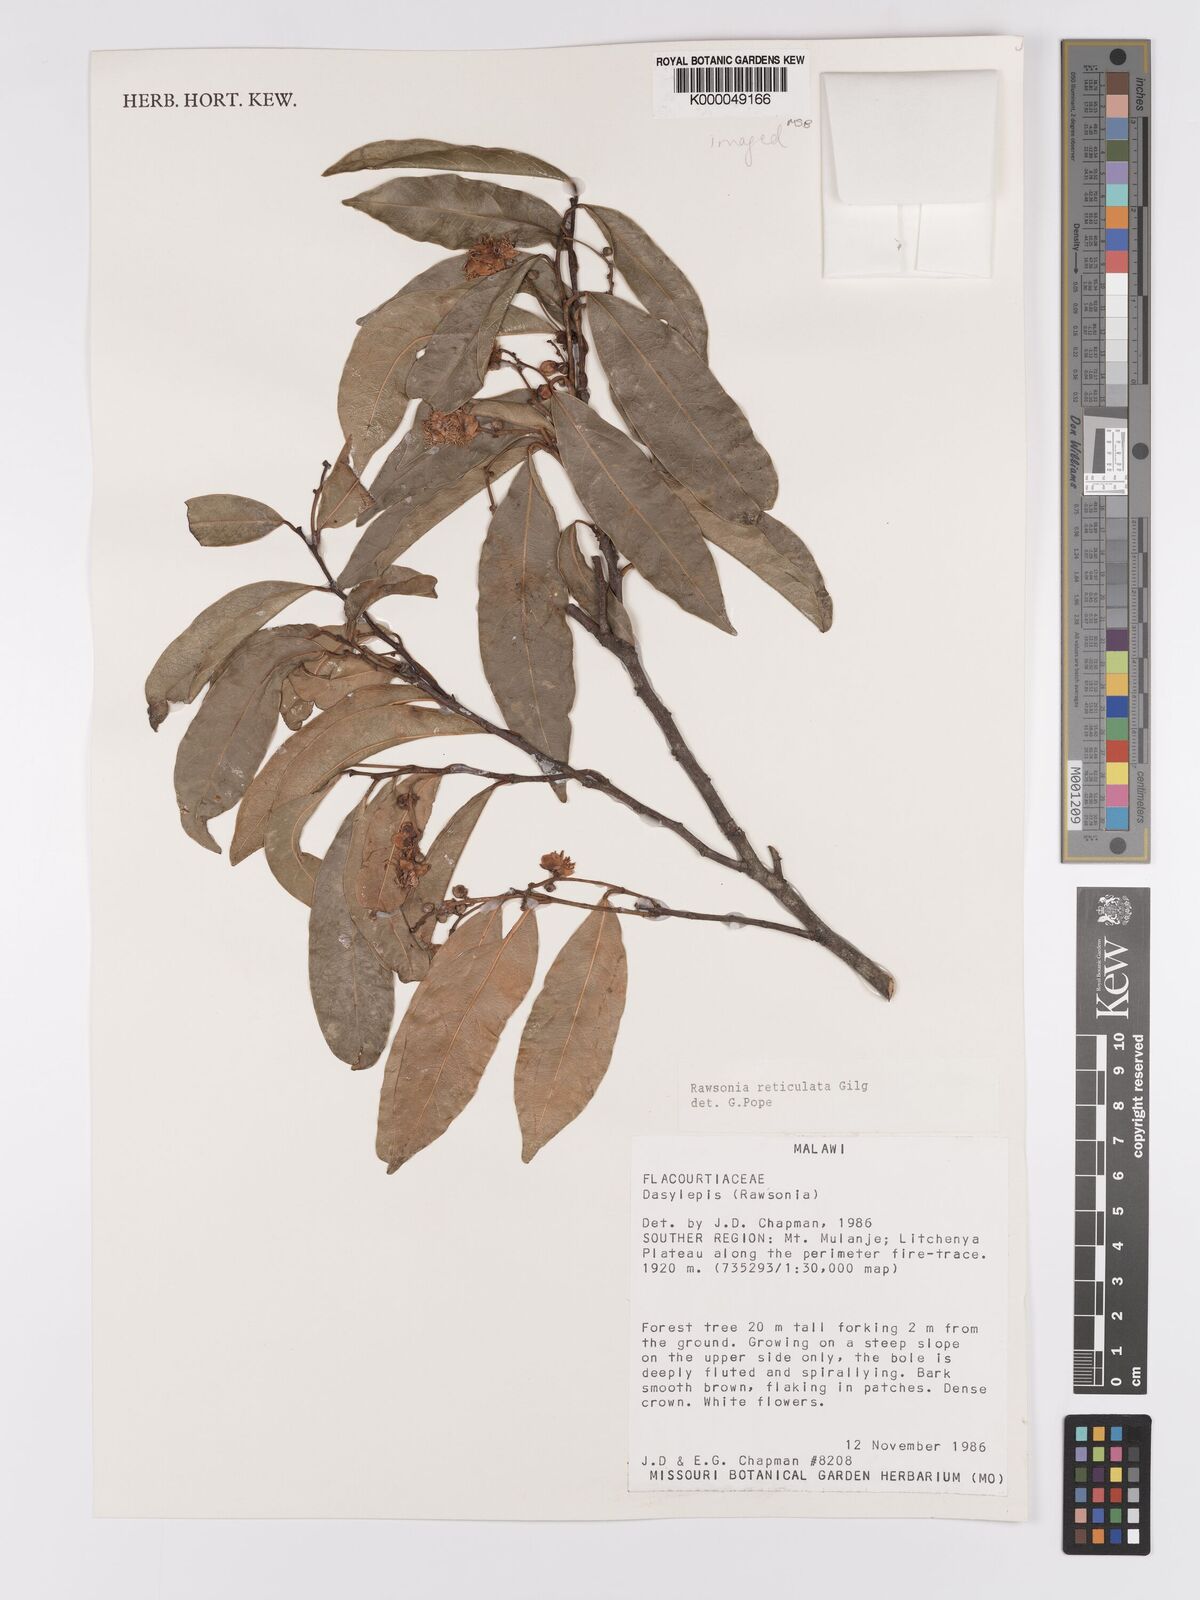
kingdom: Plantae
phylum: Tracheophyta
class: Magnoliopsida
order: Malpighiales
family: Achariaceae
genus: Rawsonia
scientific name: Rawsonia burtt-davyi
